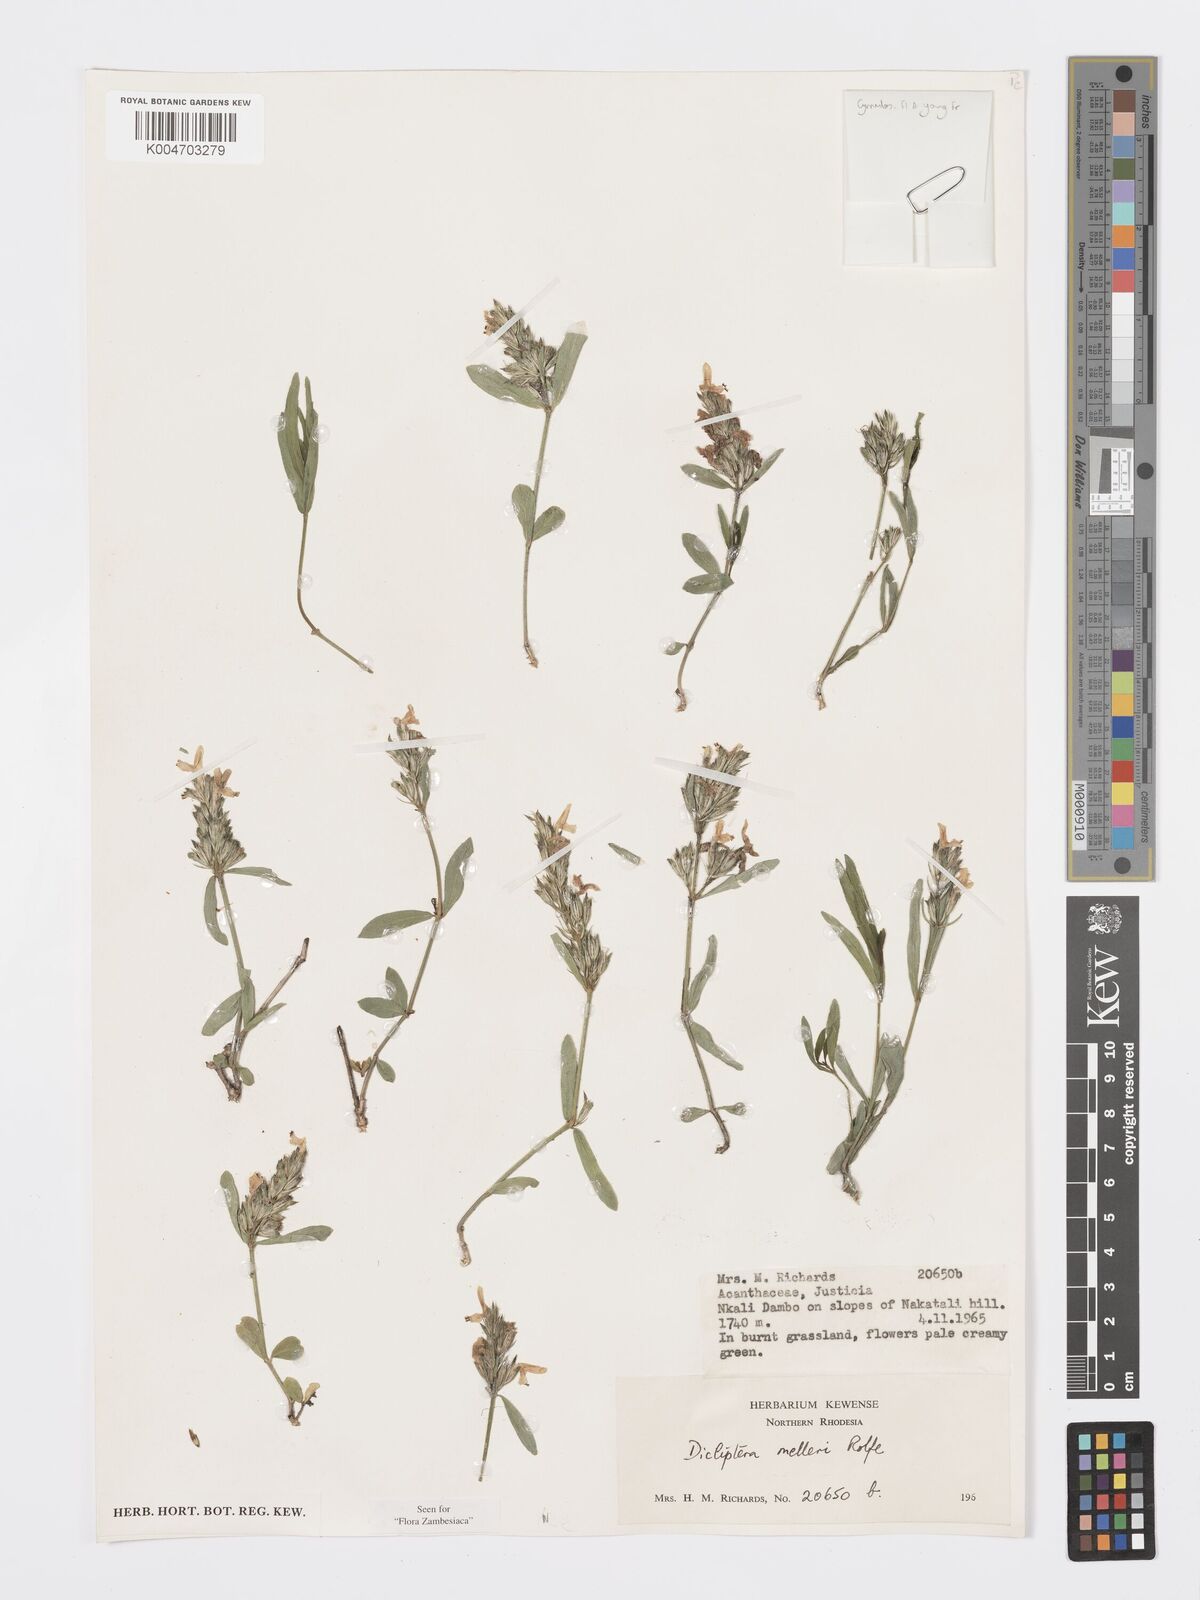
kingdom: Plantae
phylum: Tracheophyta
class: Magnoliopsida
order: Lamiales
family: Acanthaceae
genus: Dicliptera
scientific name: Dicliptera melleri
